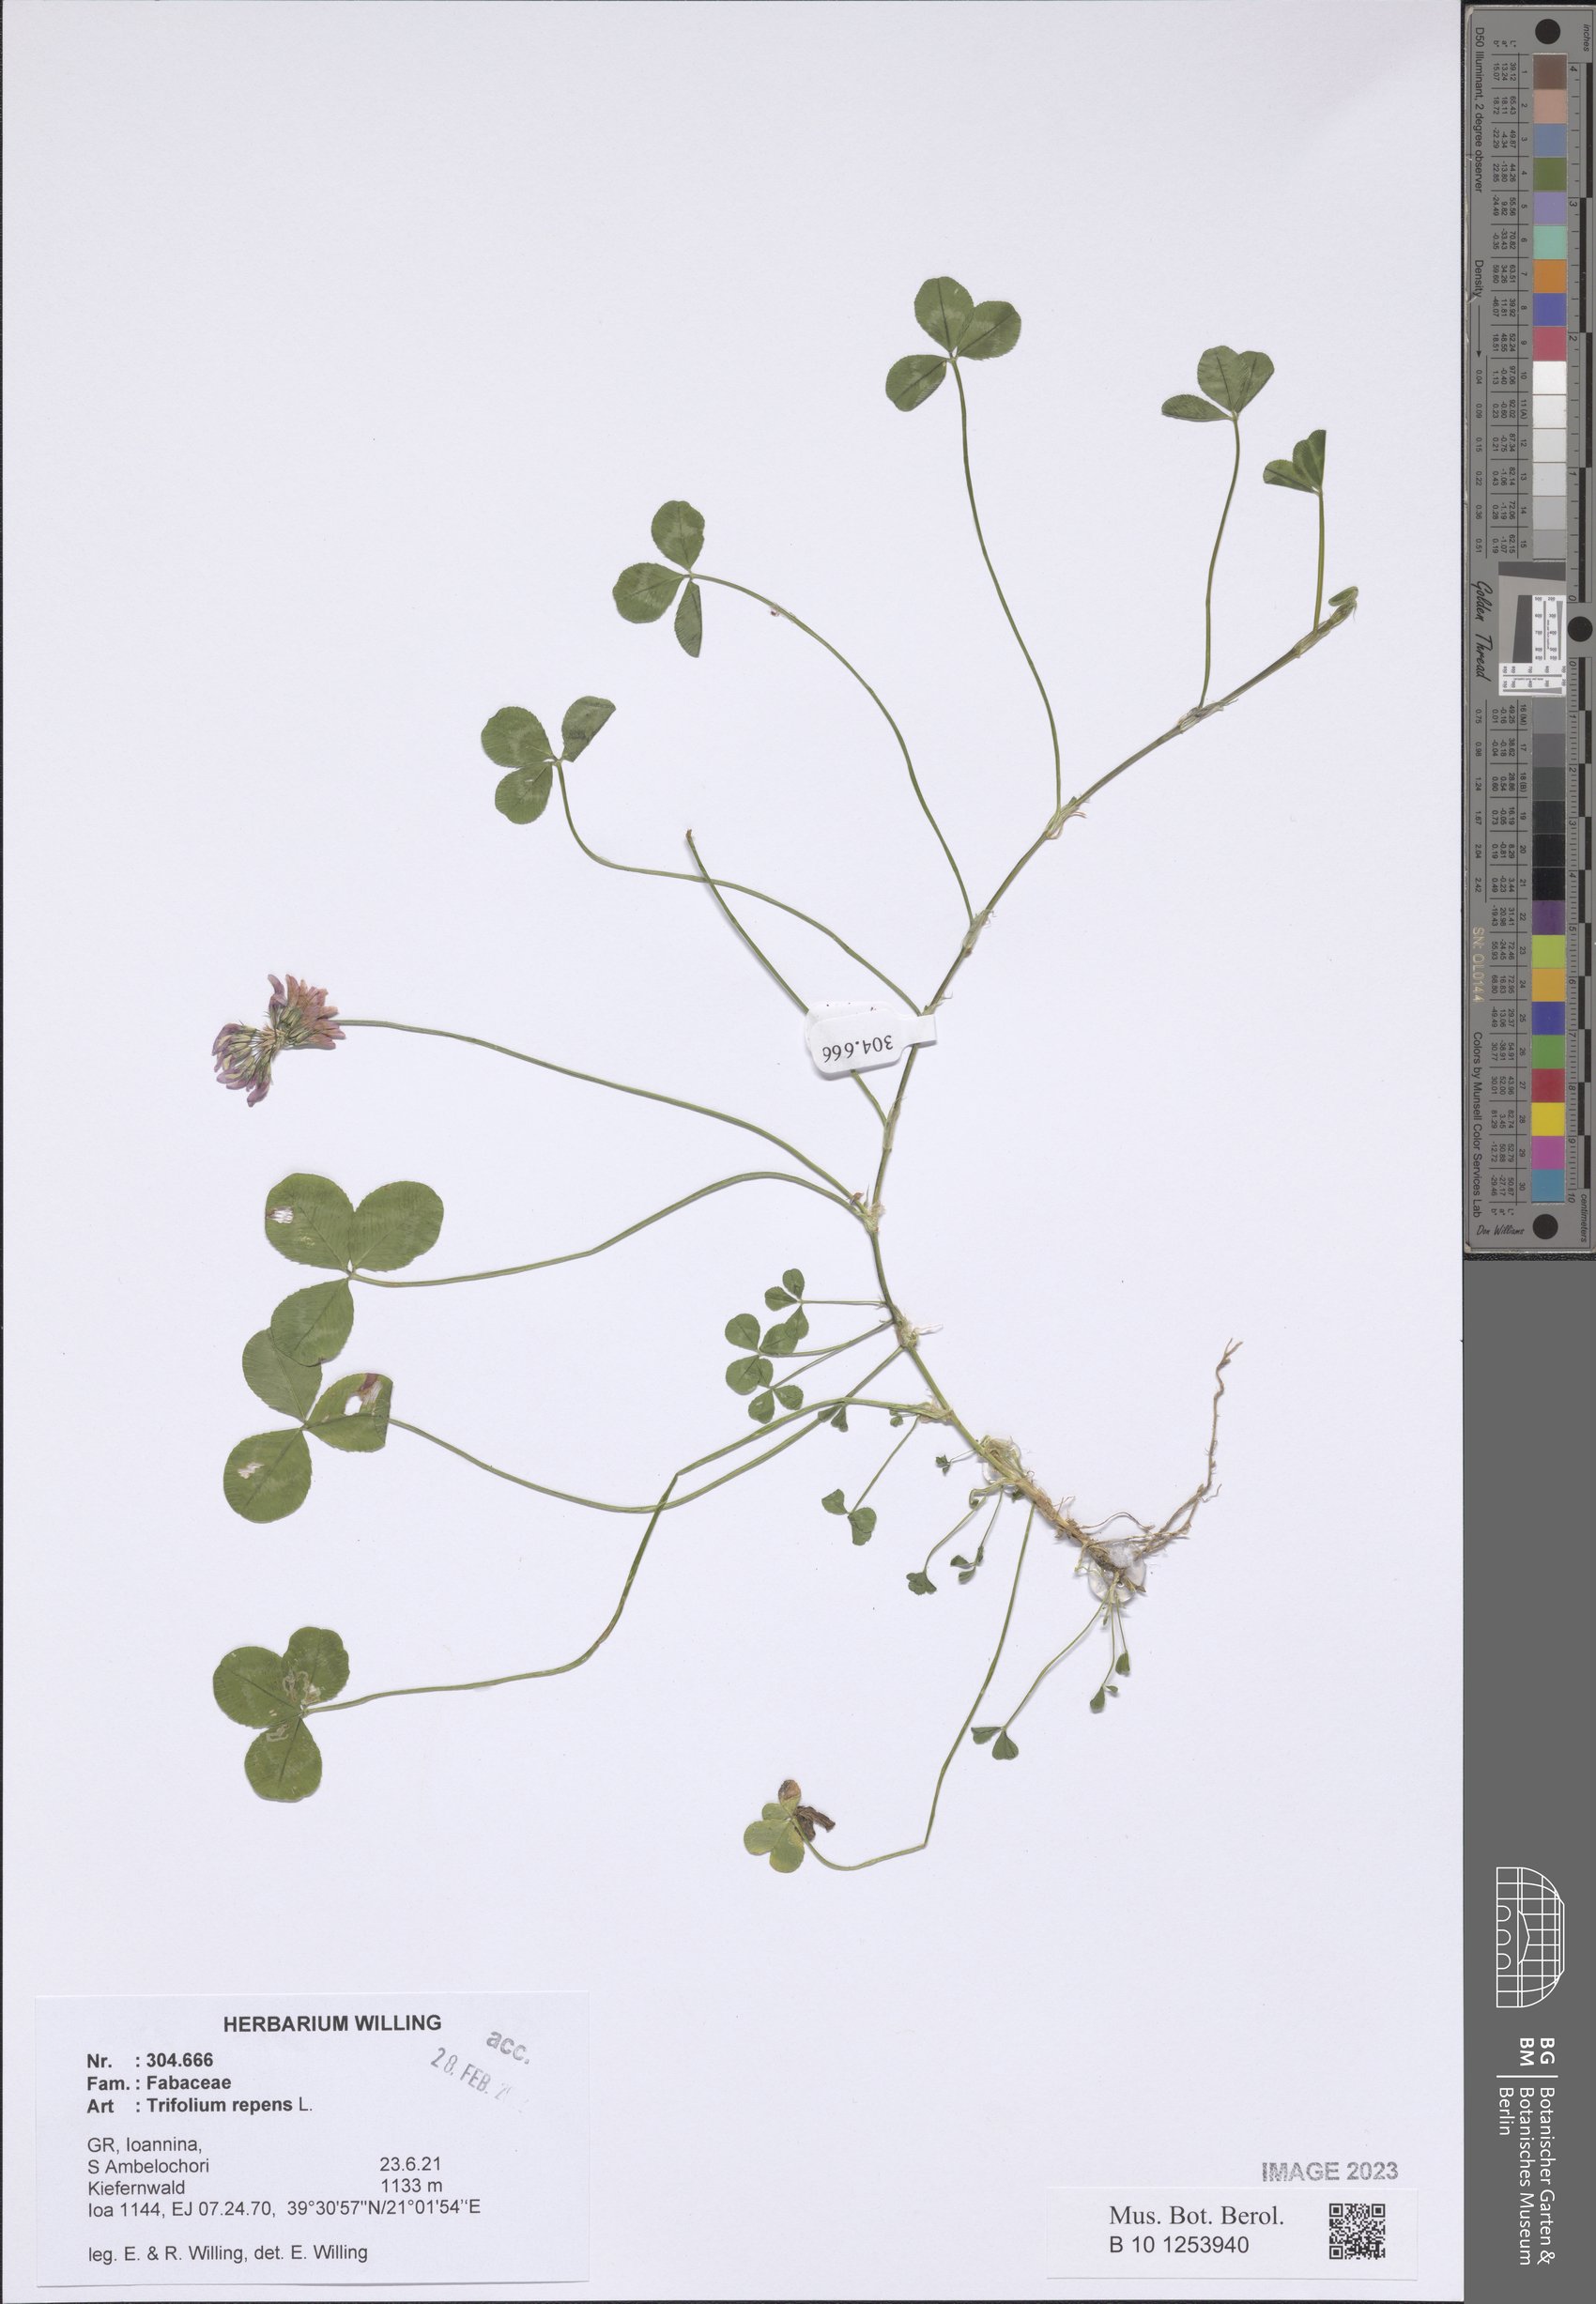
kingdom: Plantae
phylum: Tracheophyta
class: Magnoliopsida
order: Fabales
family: Fabaceae
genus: Trifolium
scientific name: Trifolium repens
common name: White clover
